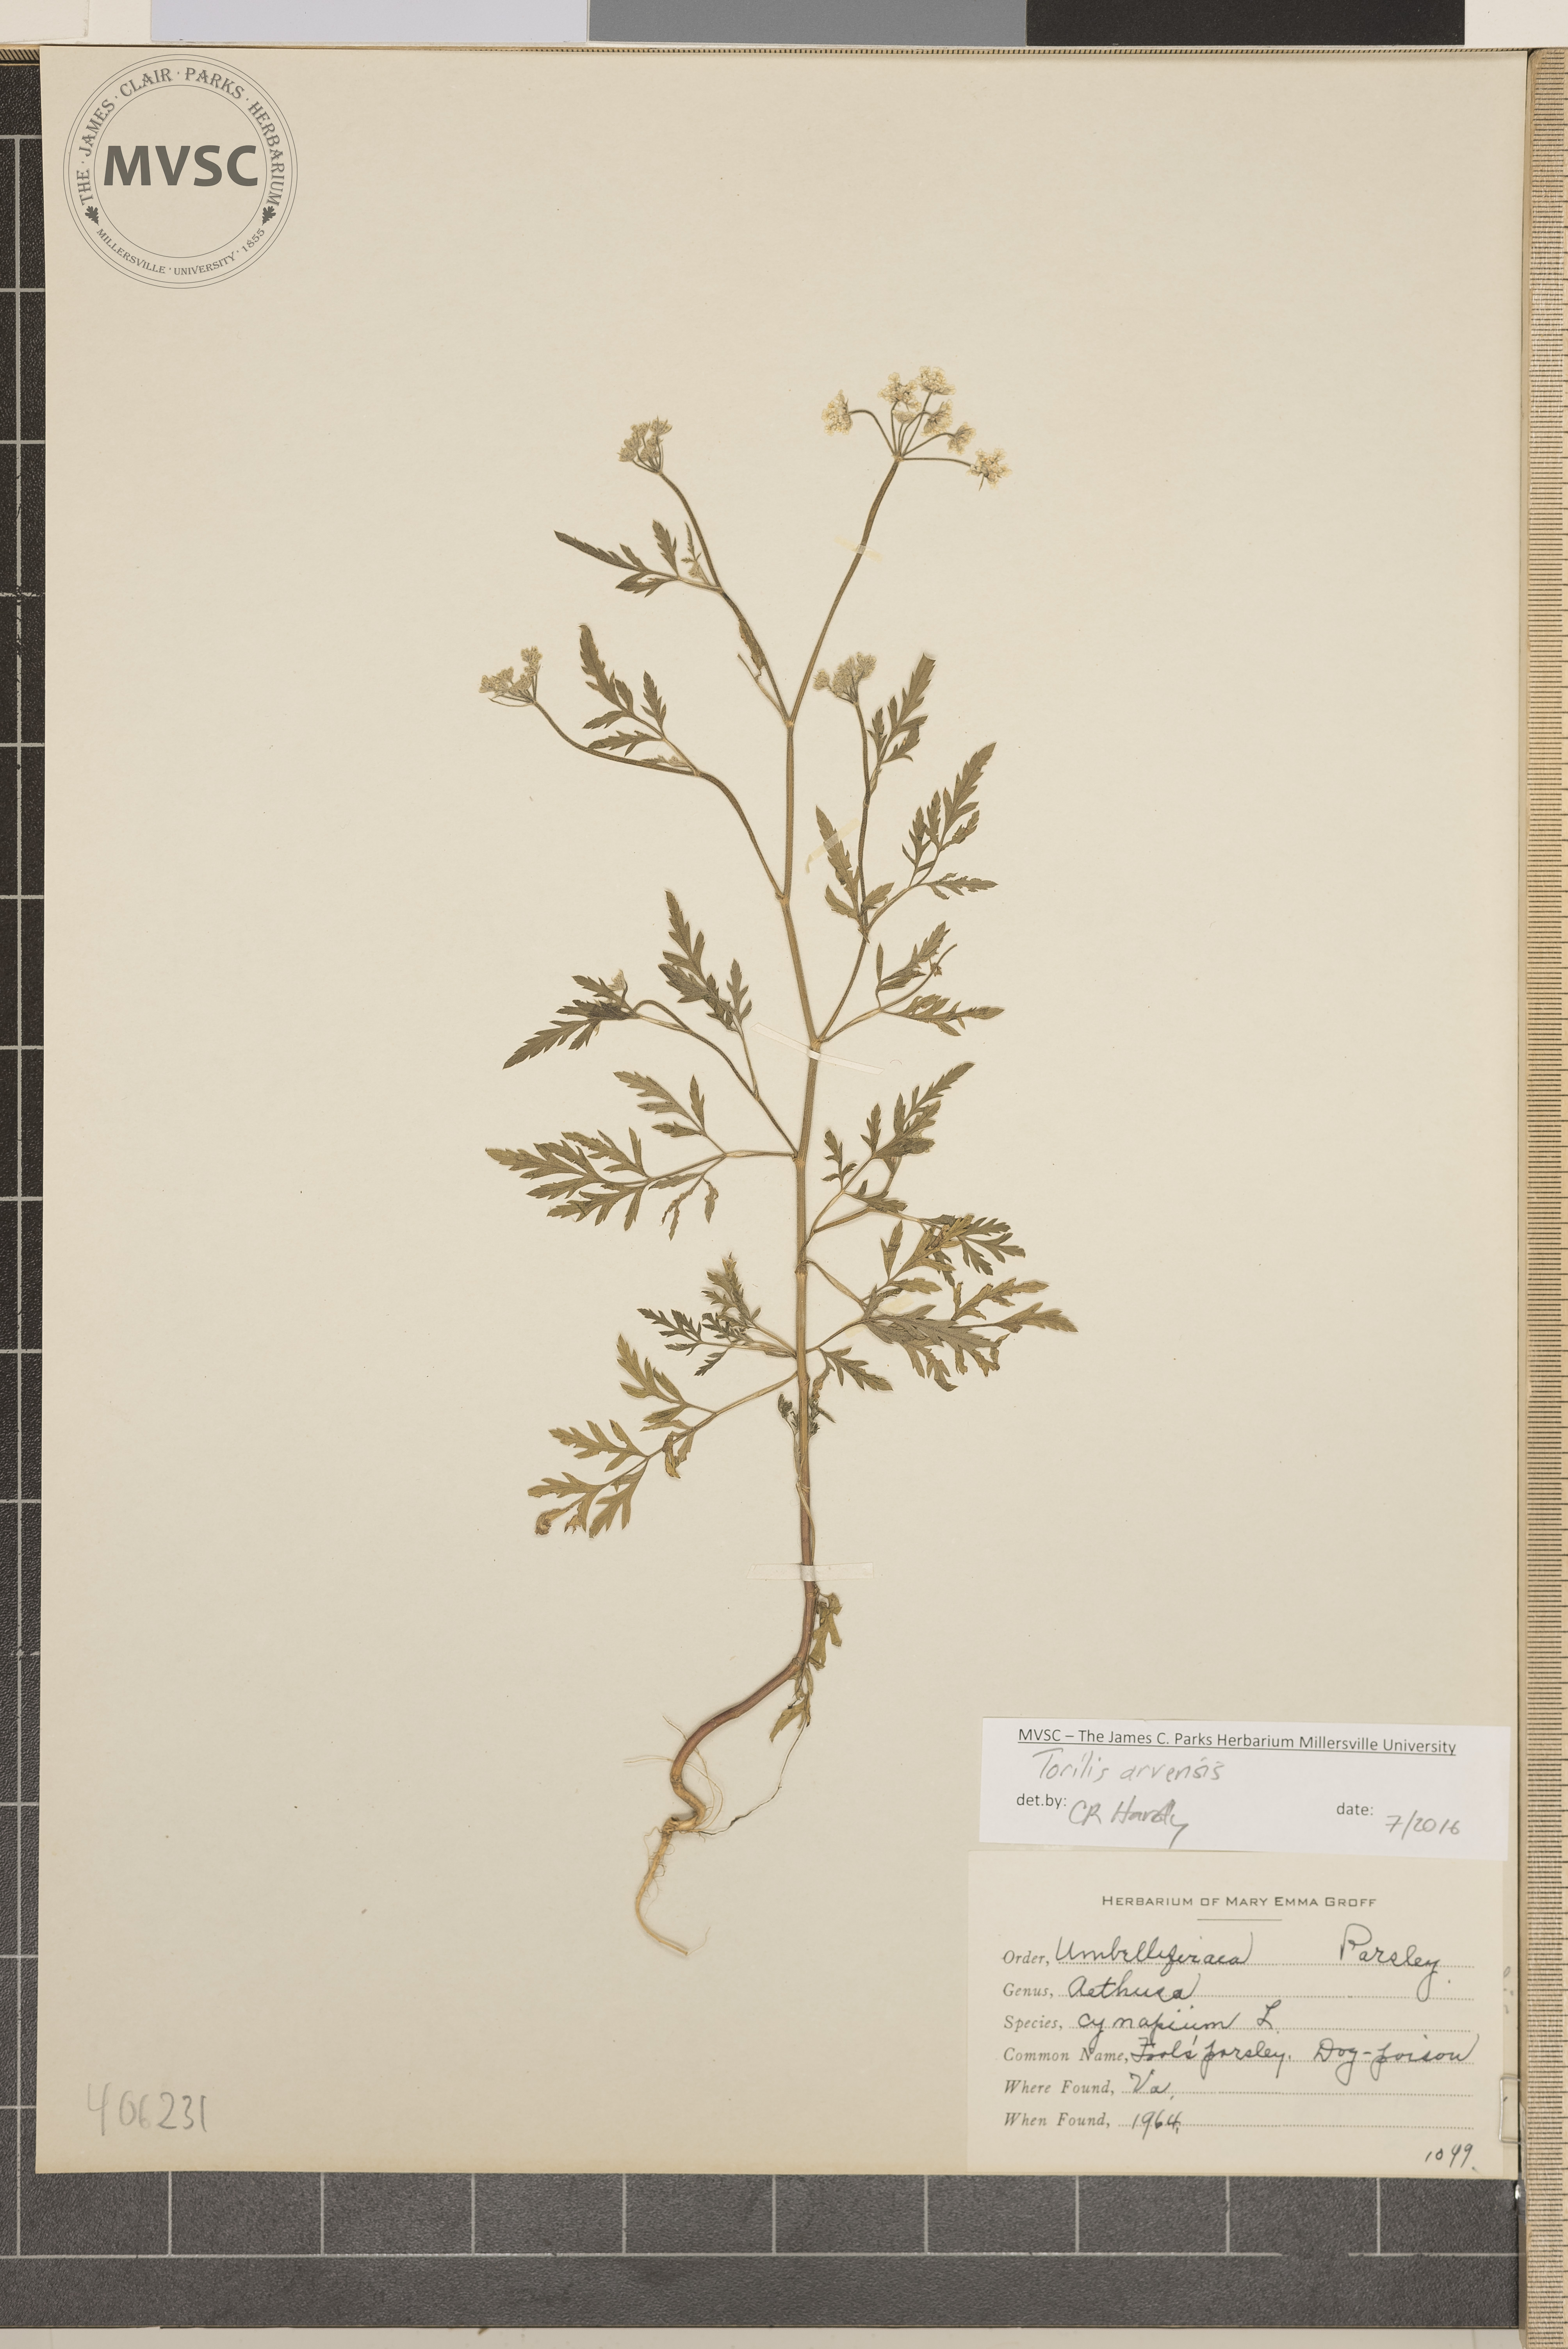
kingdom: Plantae
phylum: Tracheophyta
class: Magnoliopsida
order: Apiales
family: Apiaceae
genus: Torilis
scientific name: Torilis arvensis
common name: Hedgeparsley
